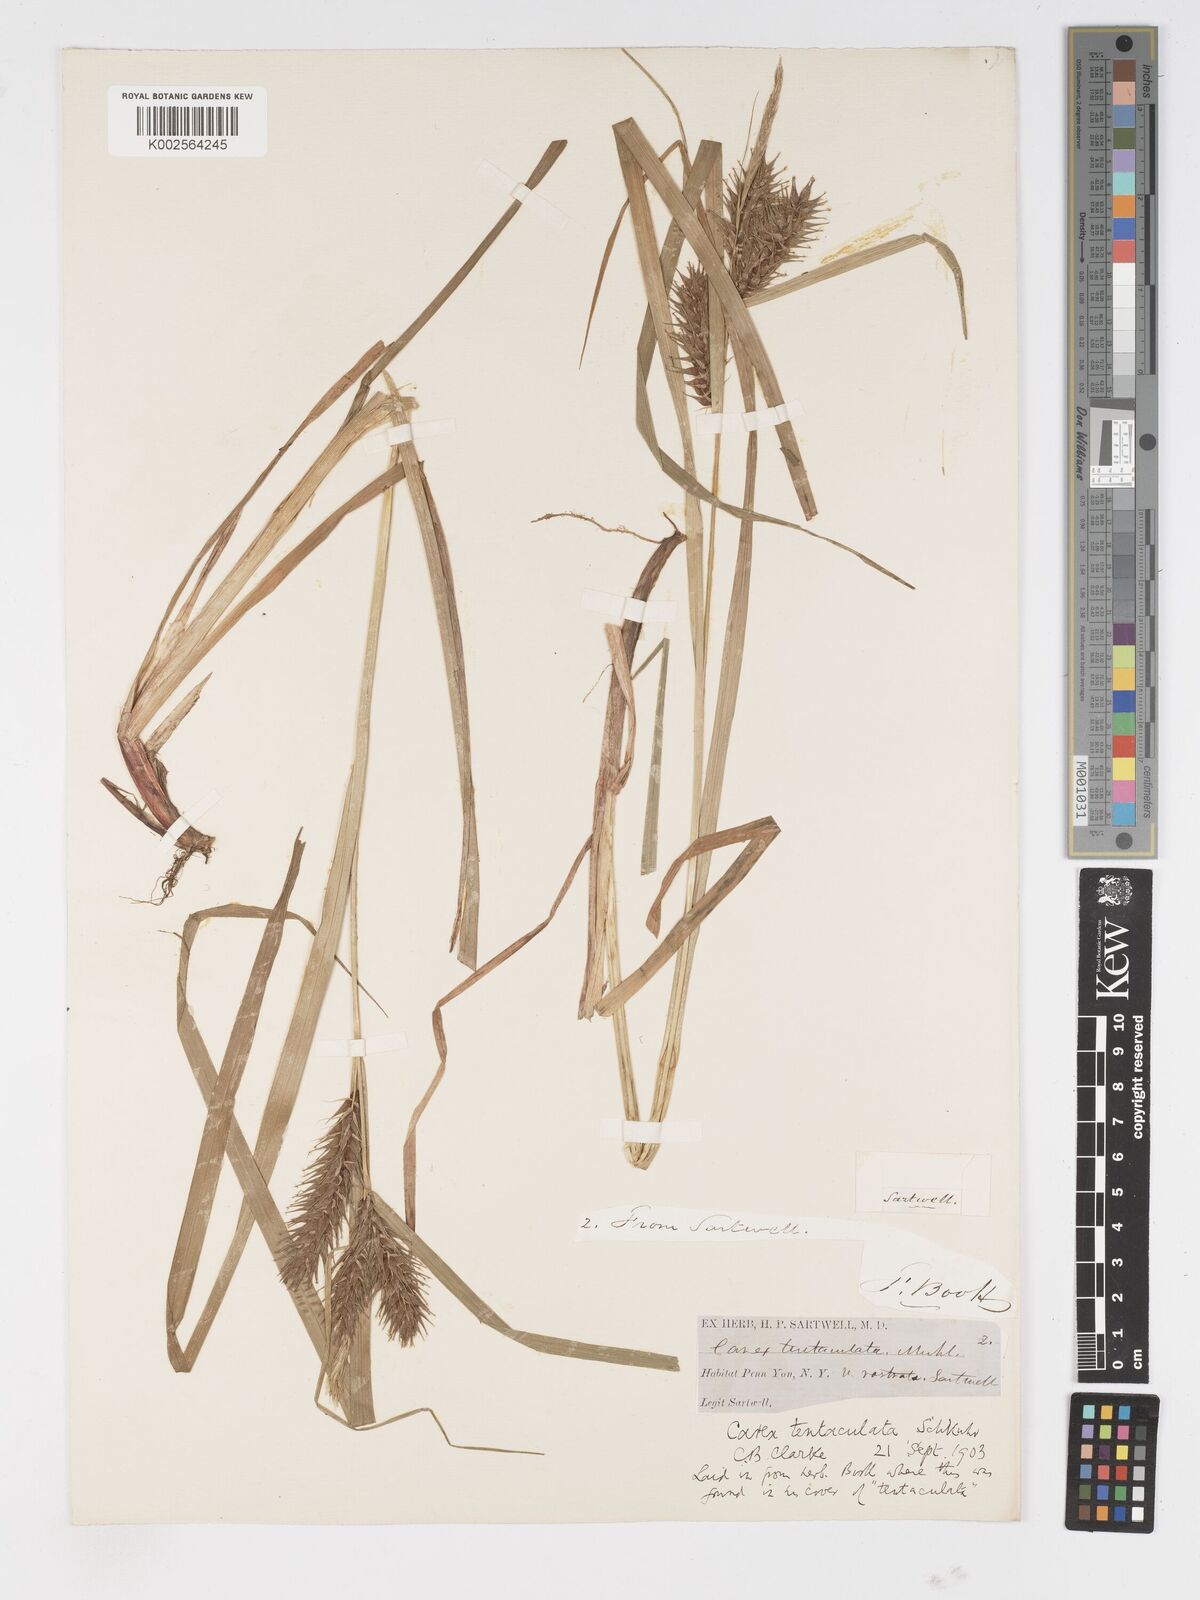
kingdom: Plantae
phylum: Tracheophyta
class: Liliopsida
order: Poales
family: Cyperaceae
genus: Carex
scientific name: Carex lurida
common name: Sallow sedge
